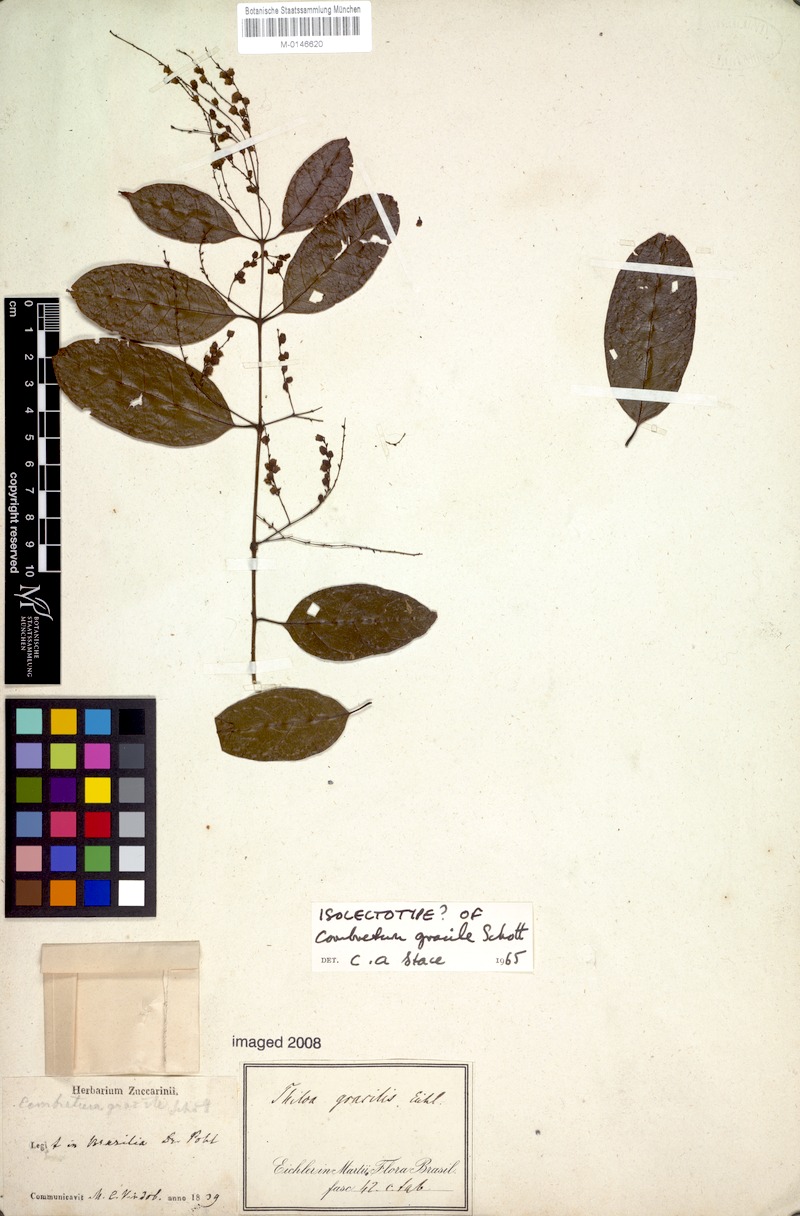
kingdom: Plantae
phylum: Tracheophyta
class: Magnoliopsida
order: Myrtales
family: Combretaceae
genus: Combretum
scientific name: Combretum gracile
